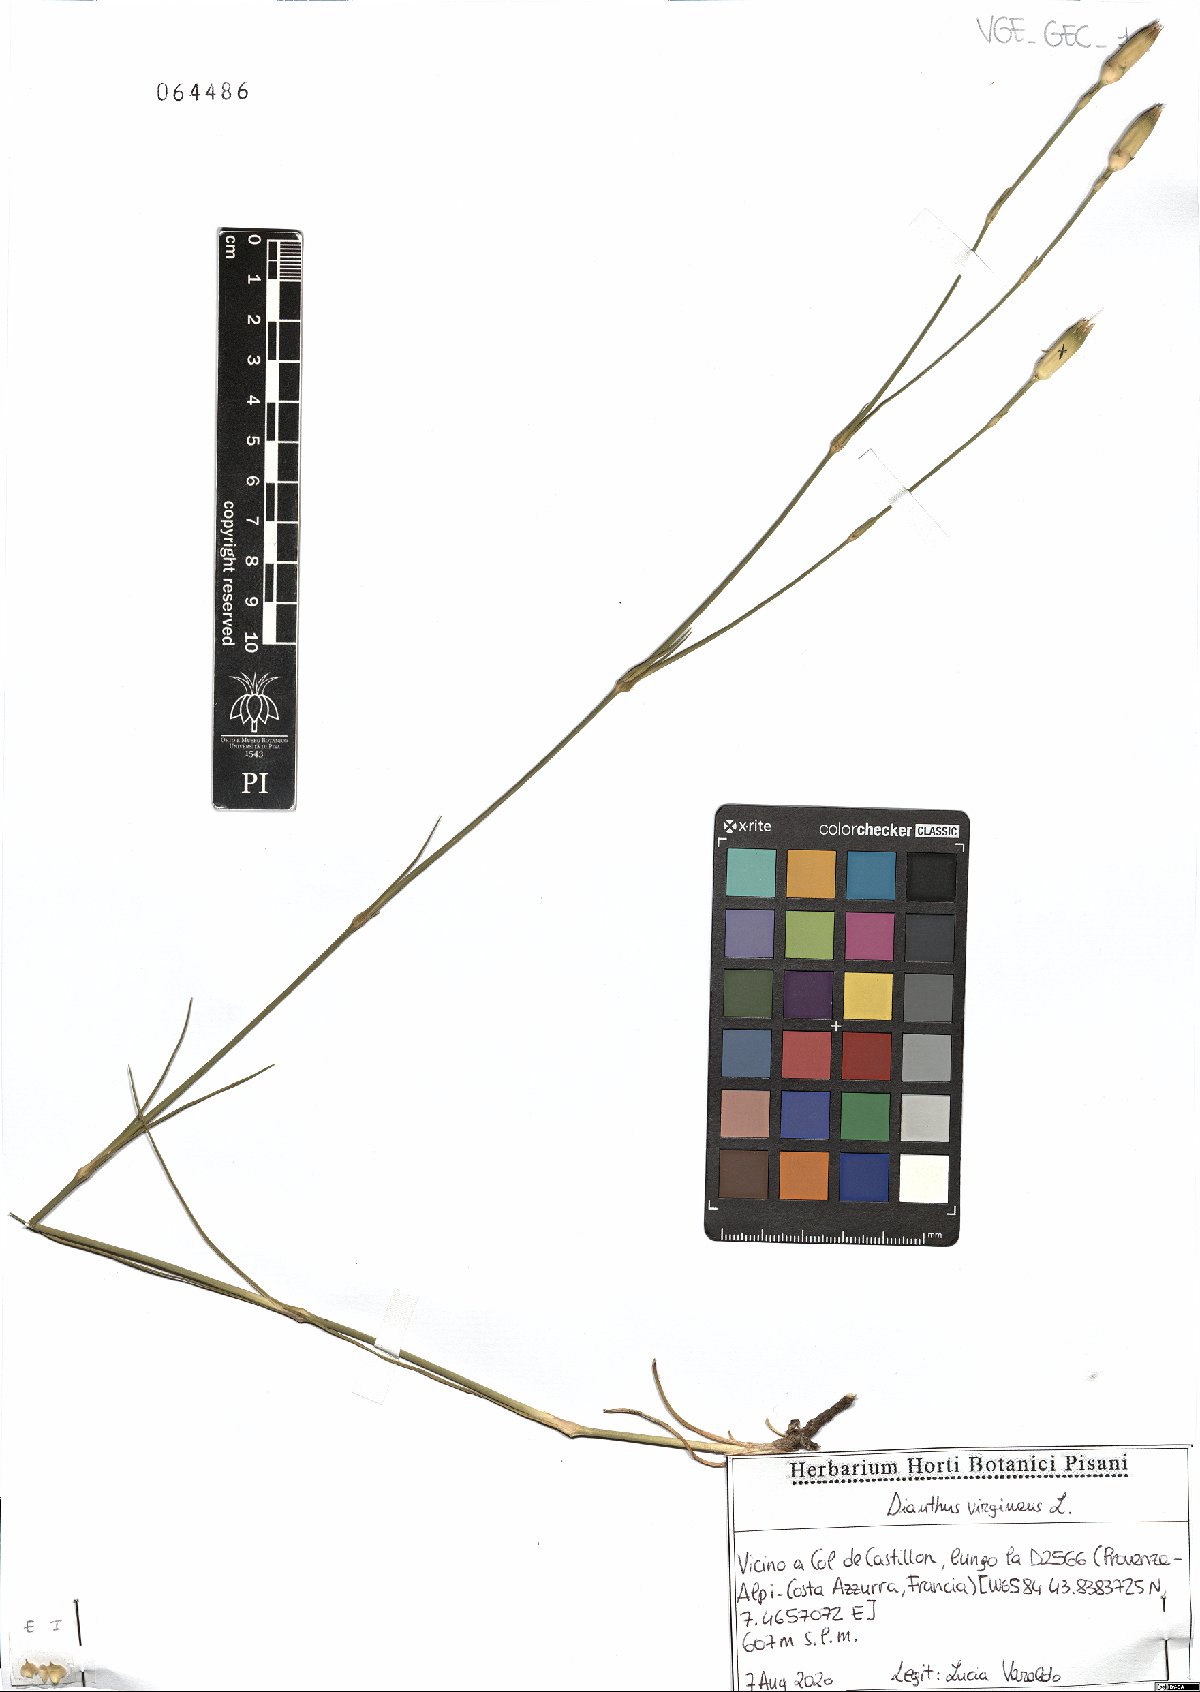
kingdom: Plantae
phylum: Tracheophyta
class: Magnoliopsida
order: Caryophyllales
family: Caryophyllaceae
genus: Dianthus
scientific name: Dianthus virgineus
